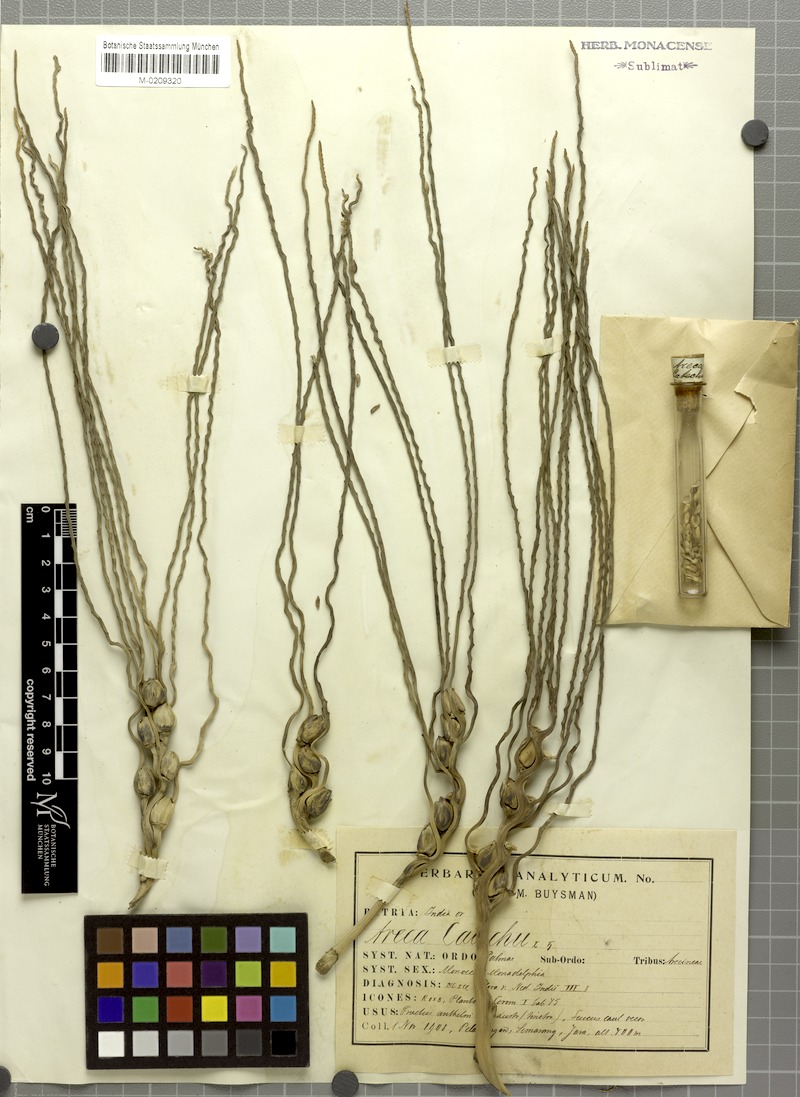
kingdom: Plantae
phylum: Tracheophyta
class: Liliopsida
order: Arecales
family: Arecaceae
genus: Areca
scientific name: Areca catechu
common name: Indian-nut
